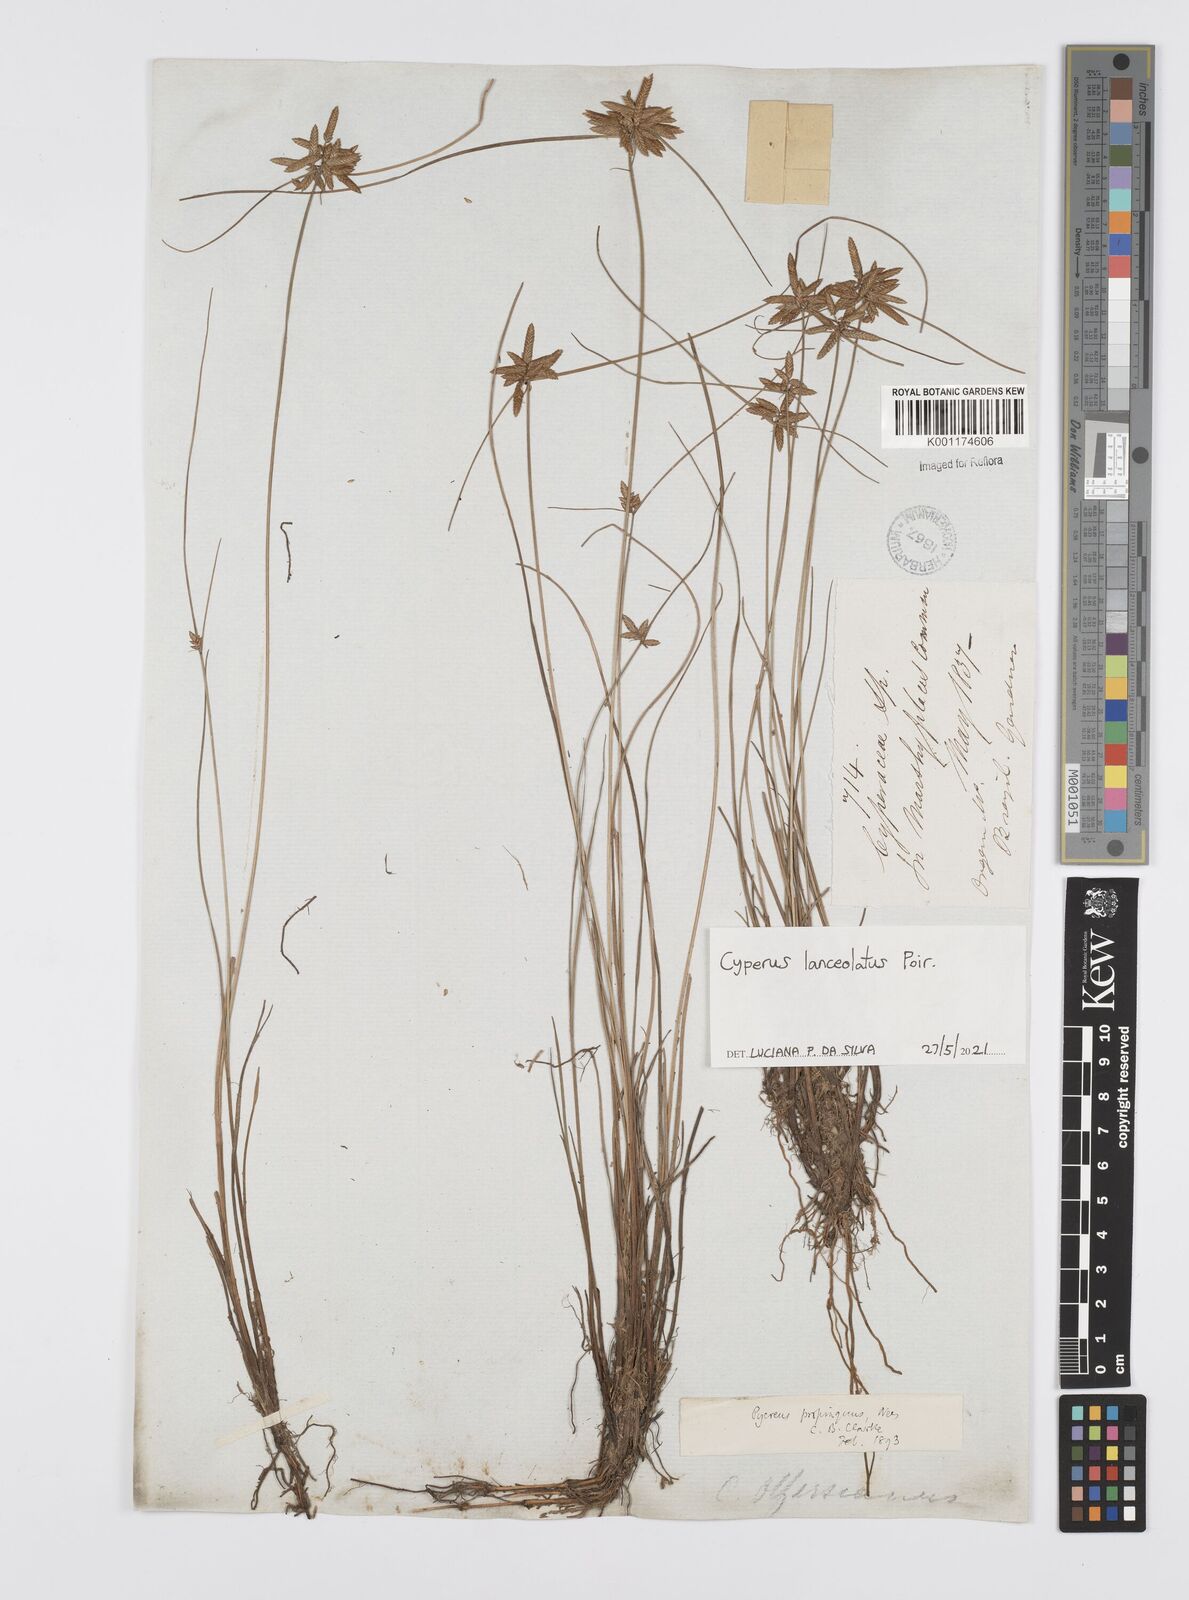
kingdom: Plantae
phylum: Tracheophyta
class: Liliopsida
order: Poales
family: Cyperaceae
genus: Cyperus
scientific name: Cyperus lanceolatus
